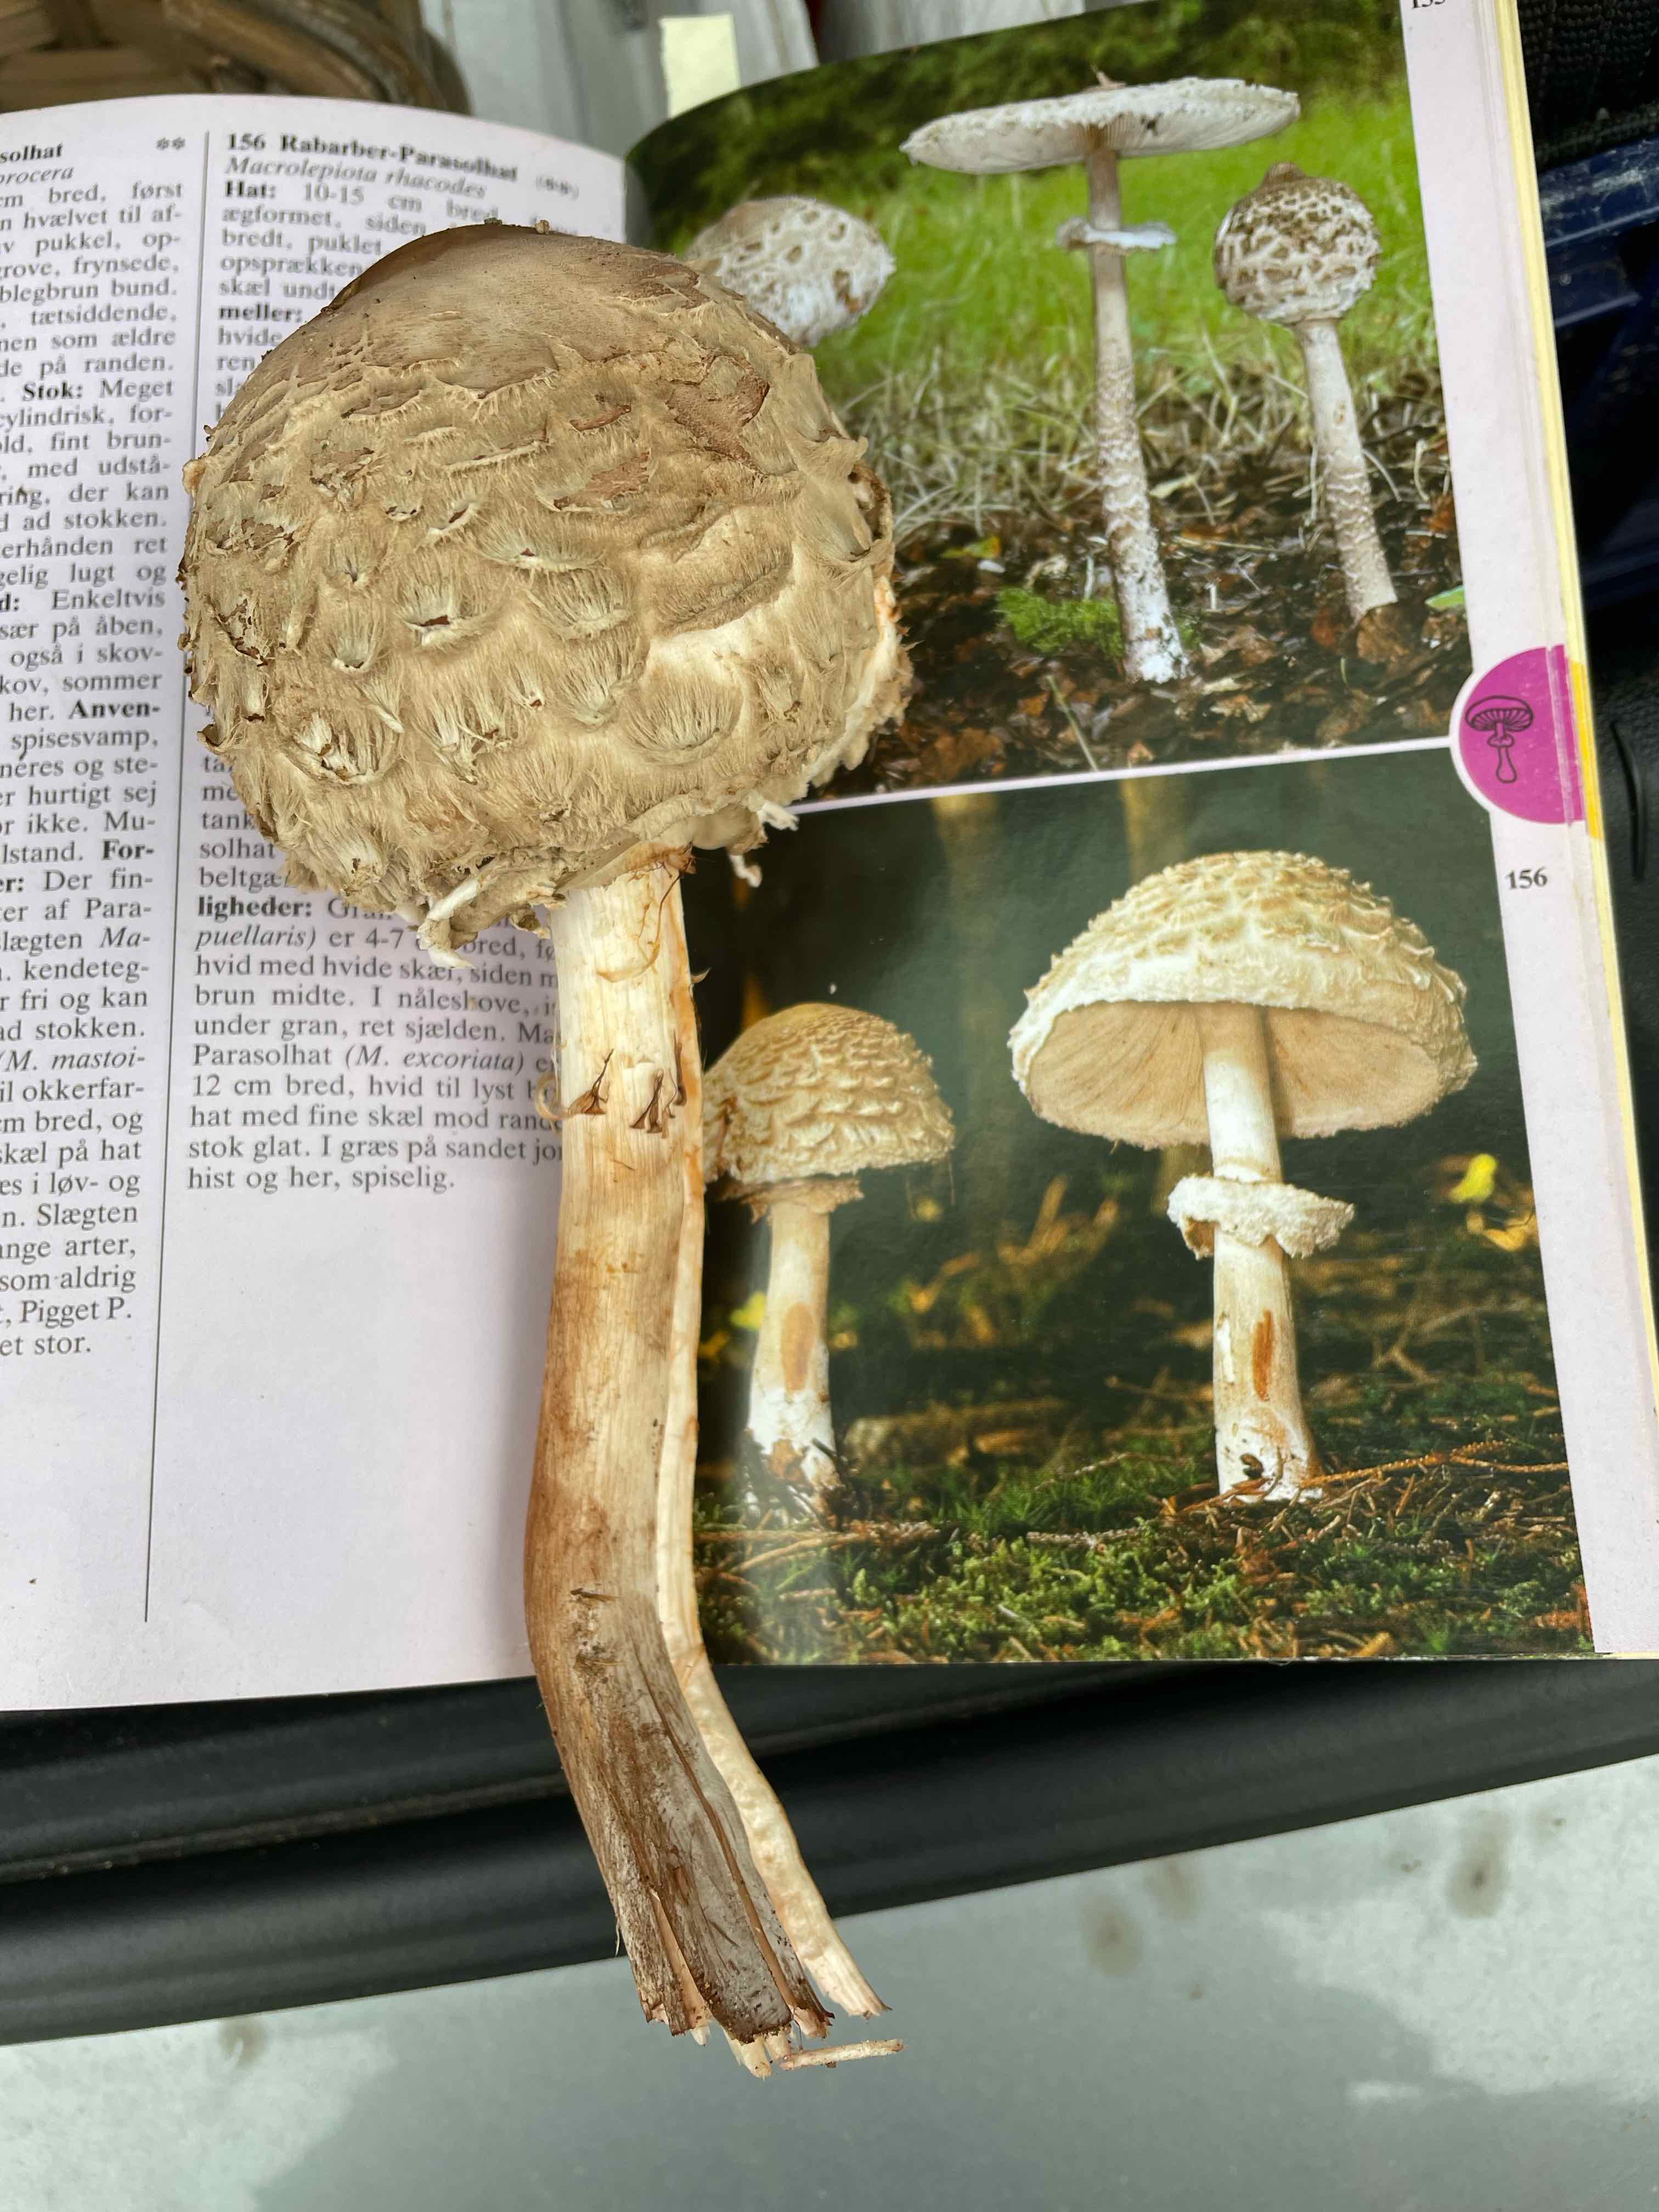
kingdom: Fungi
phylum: Basidiomycota
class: Agaricomycetes
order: Agaricales
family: Agaricaceae
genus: Chlorophyllum
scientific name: Chlorophyllum olivieri
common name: almindelig rabarberhat
